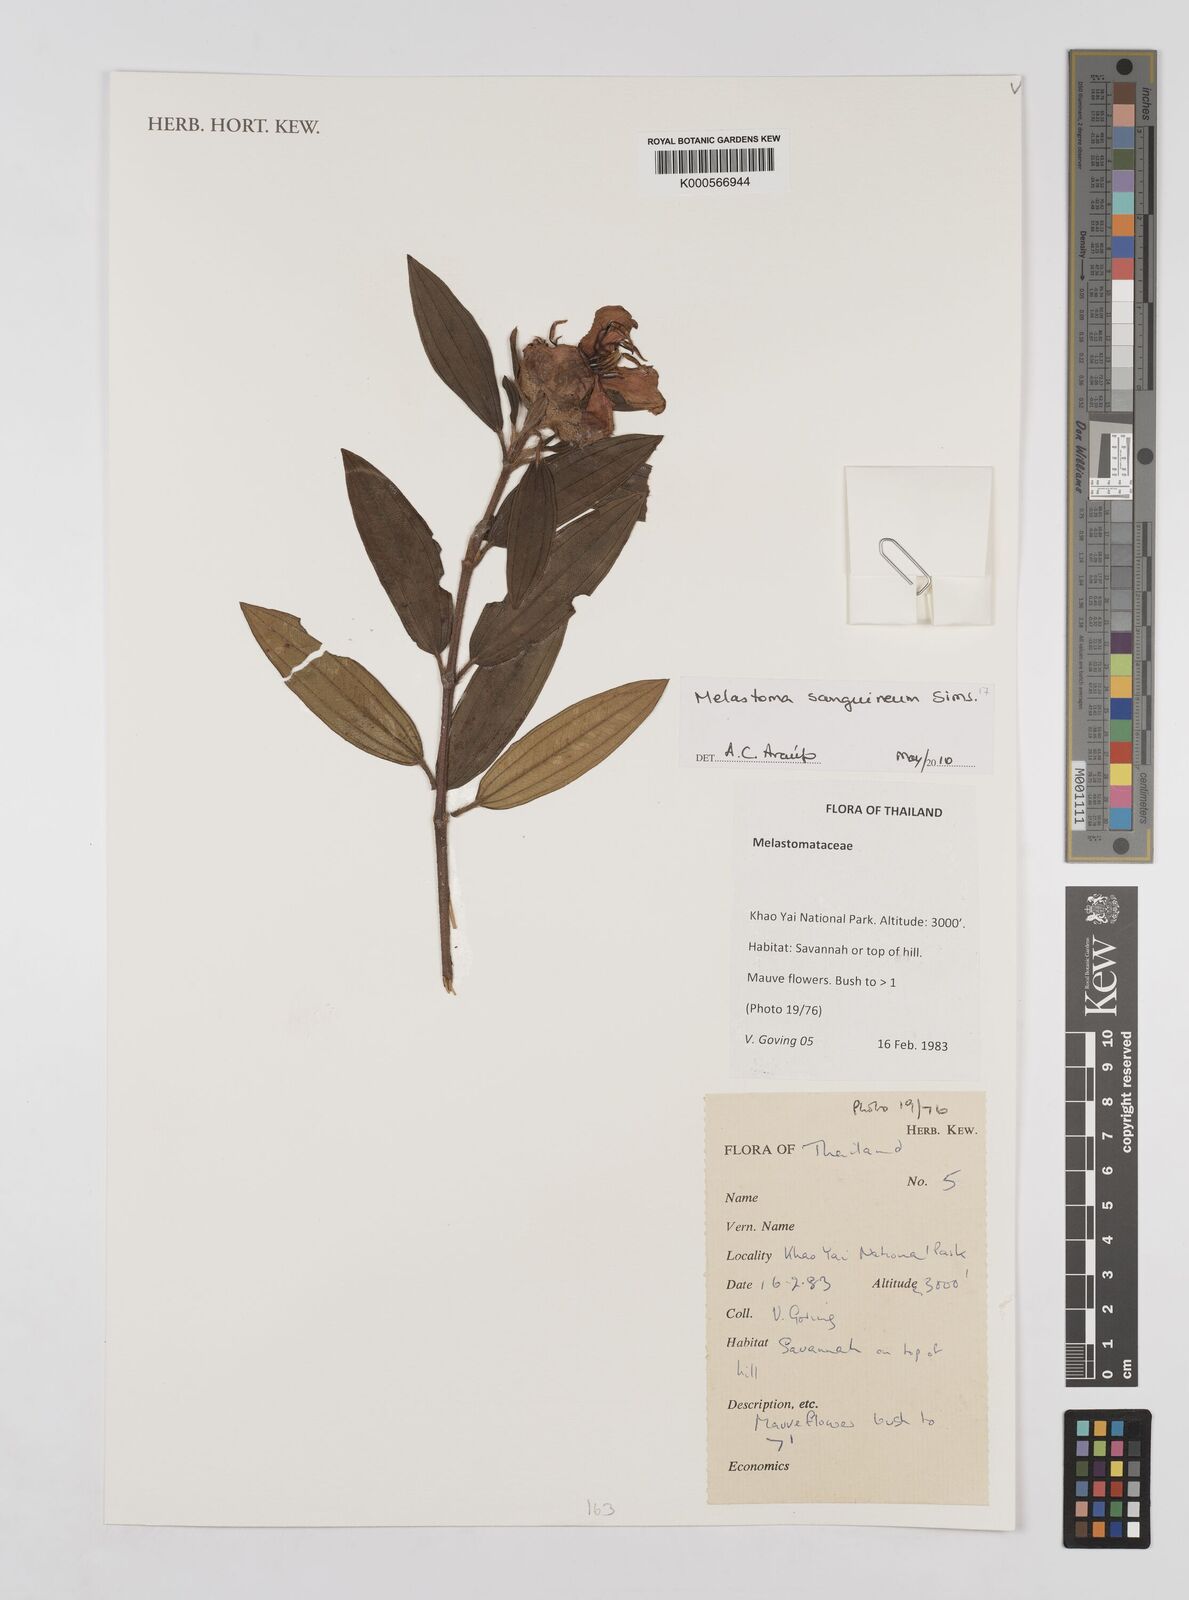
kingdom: Plantae
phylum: Tracheophyta
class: Magnoliopsida
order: Myrtales
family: Melastomataceae
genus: Melastoma
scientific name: Melastoma sanguineum
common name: Red melastome
